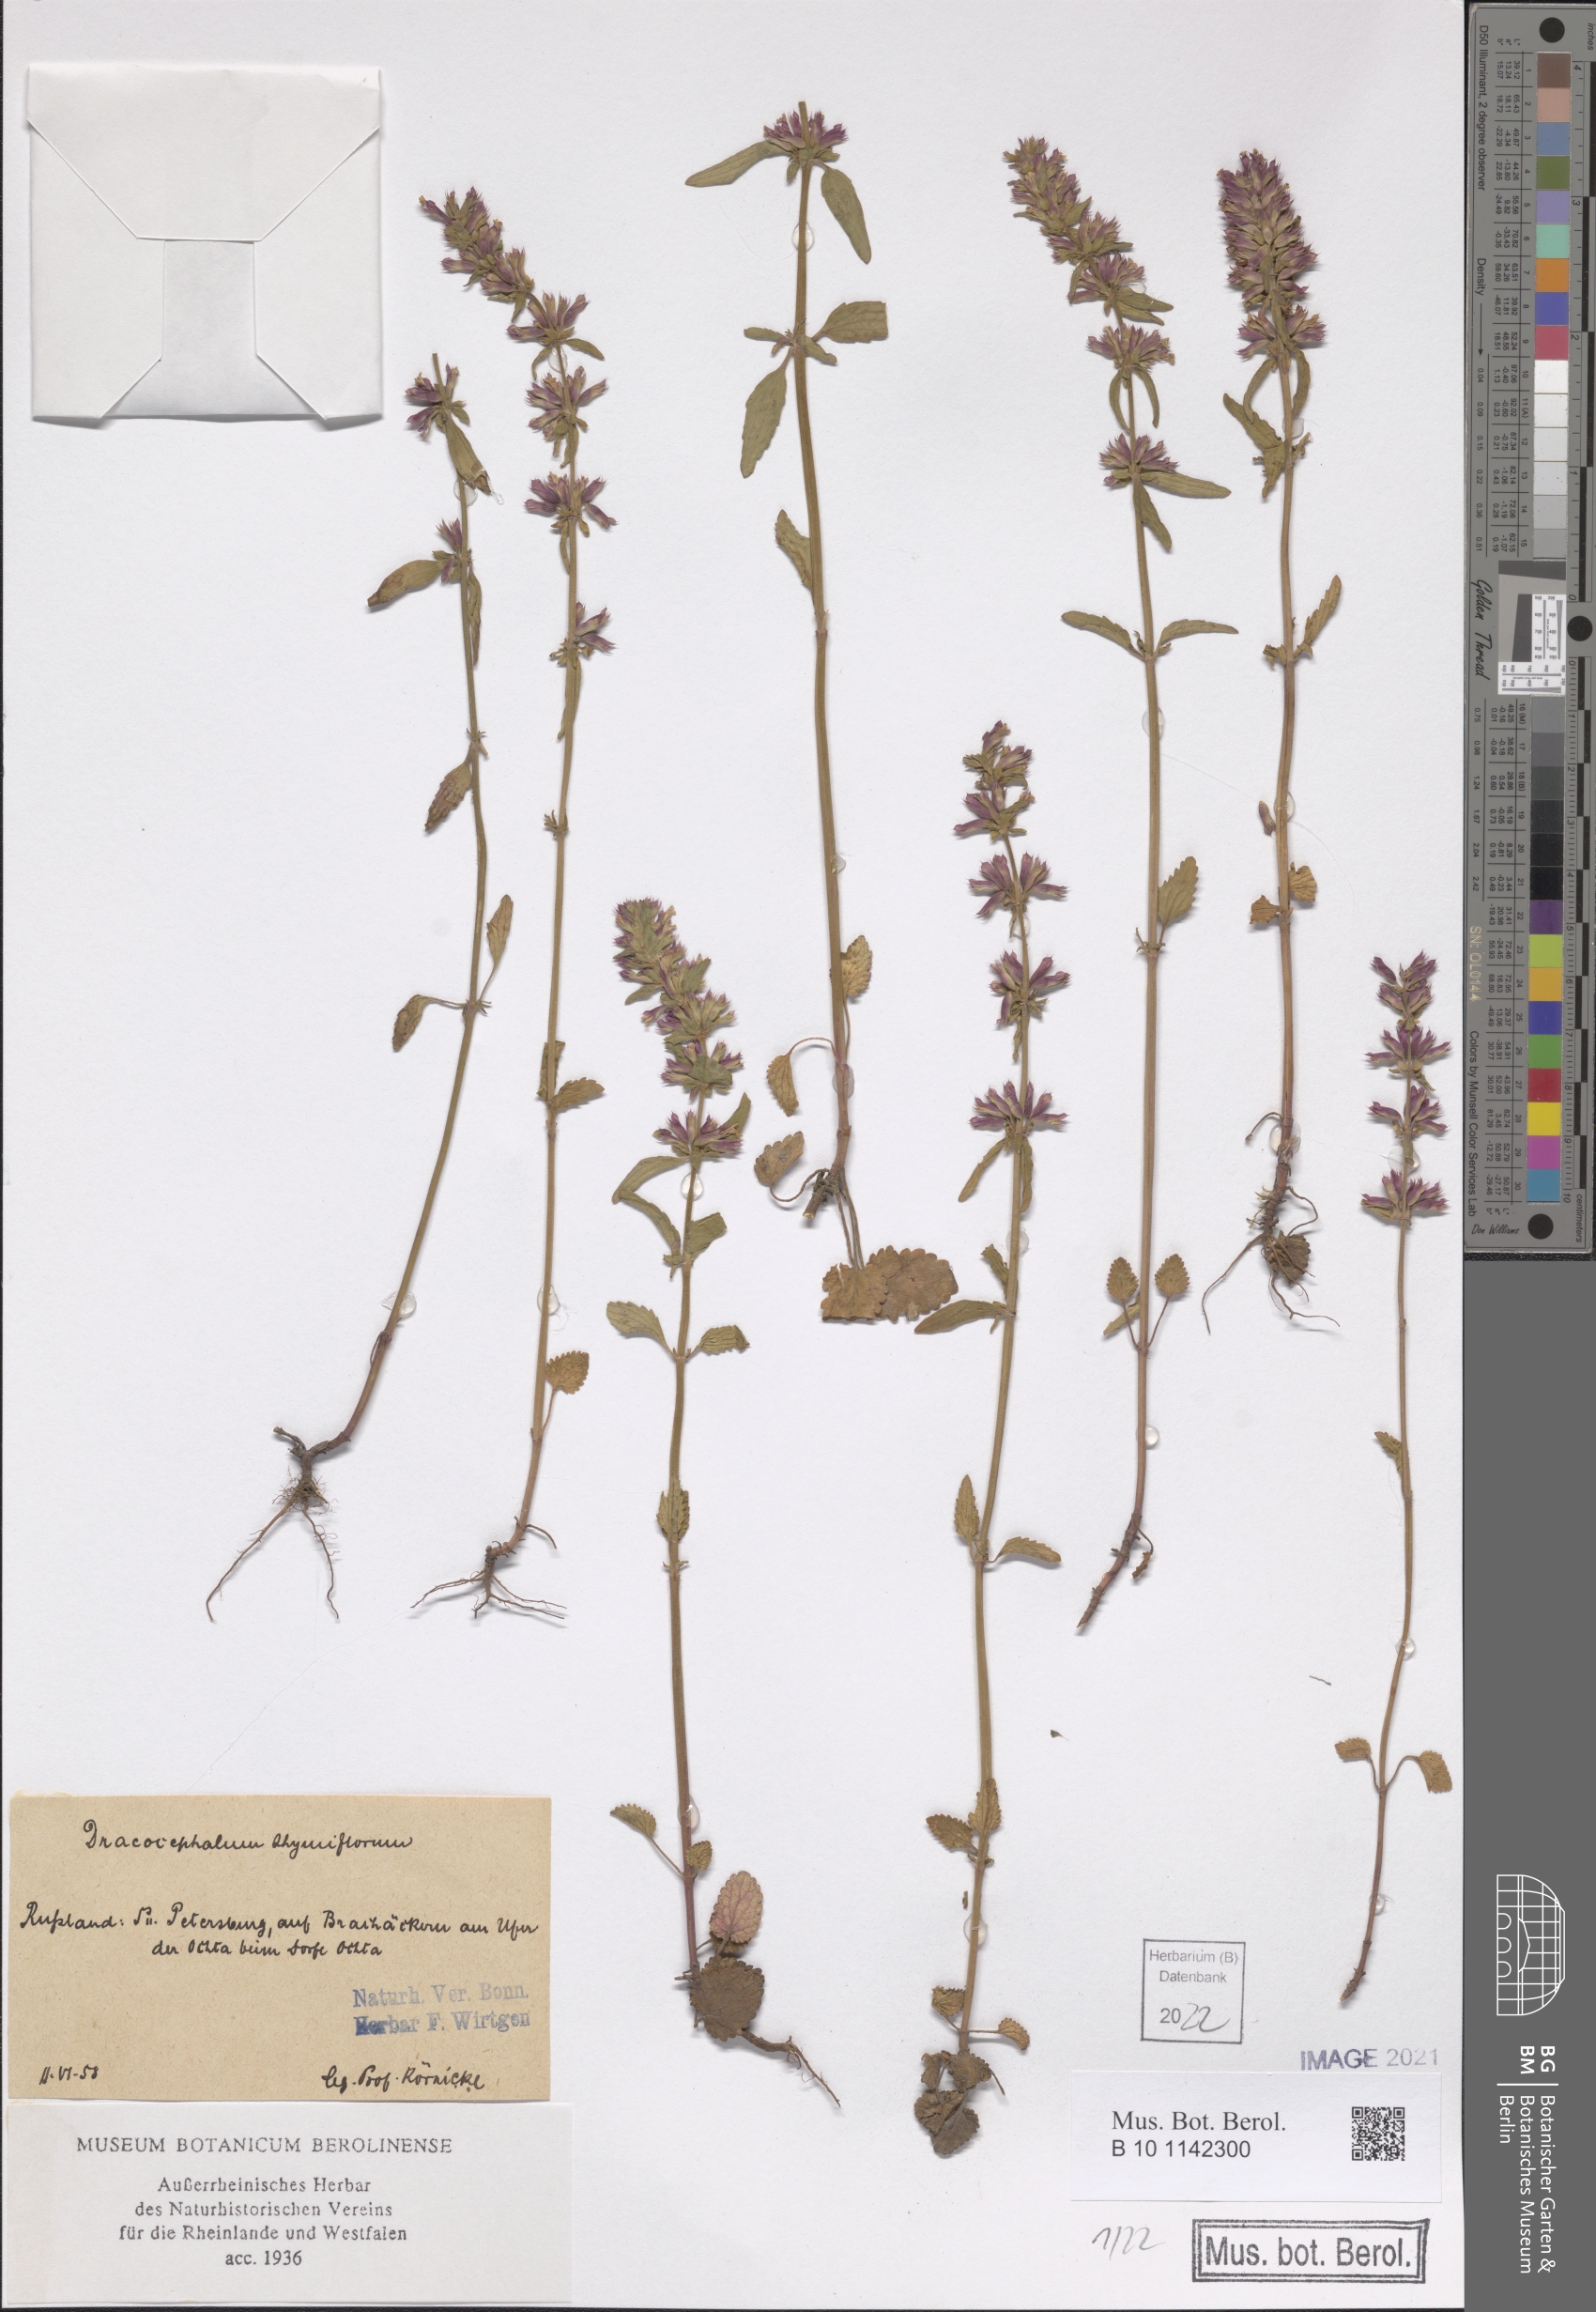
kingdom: Plantae
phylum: Tracheophyta
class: Magnoliopsida
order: Lamiales
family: Lamiaceae
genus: Dracocephalum
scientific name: Dracocephalum thymiflorum
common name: Thymeleaf dragonhead
